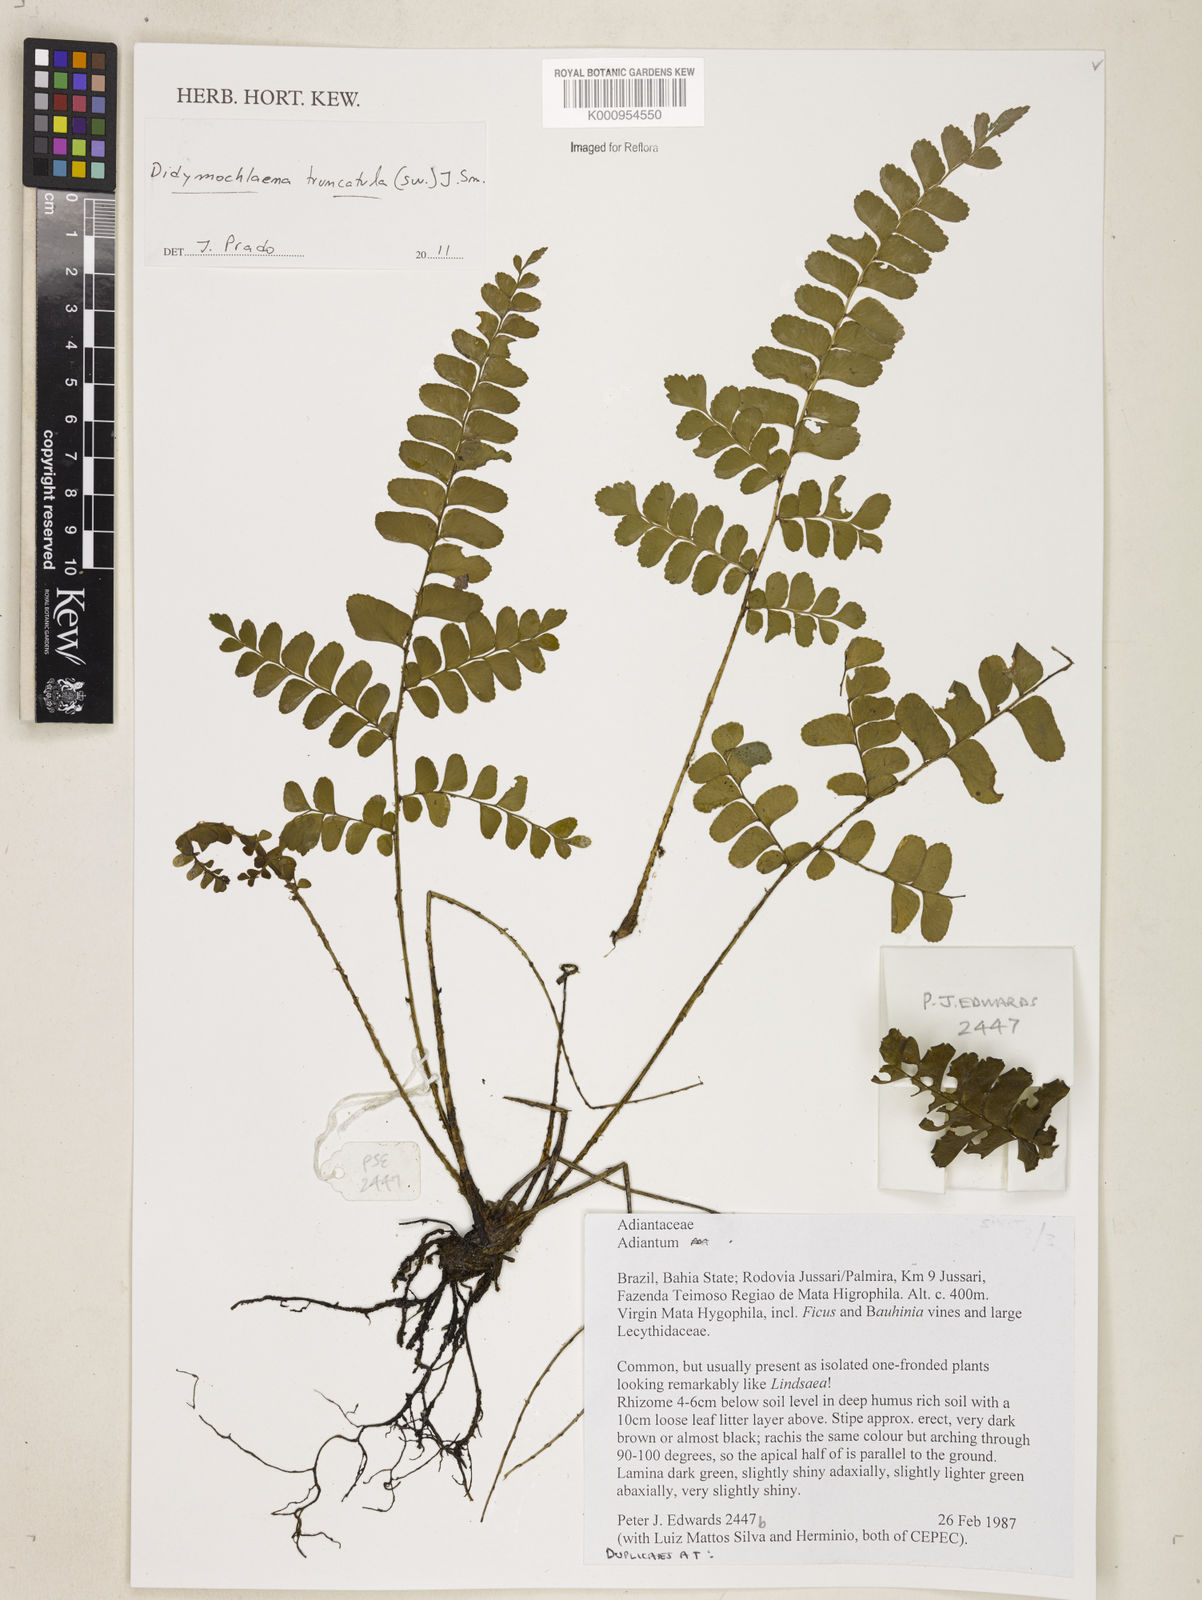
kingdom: Plantae
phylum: Tracheophyta
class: Polypodiopsida
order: Polypodiales
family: Didymochlaenaceae
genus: Didymochlaena
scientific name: Didymochlaena truncatula
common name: Mahogany fern
